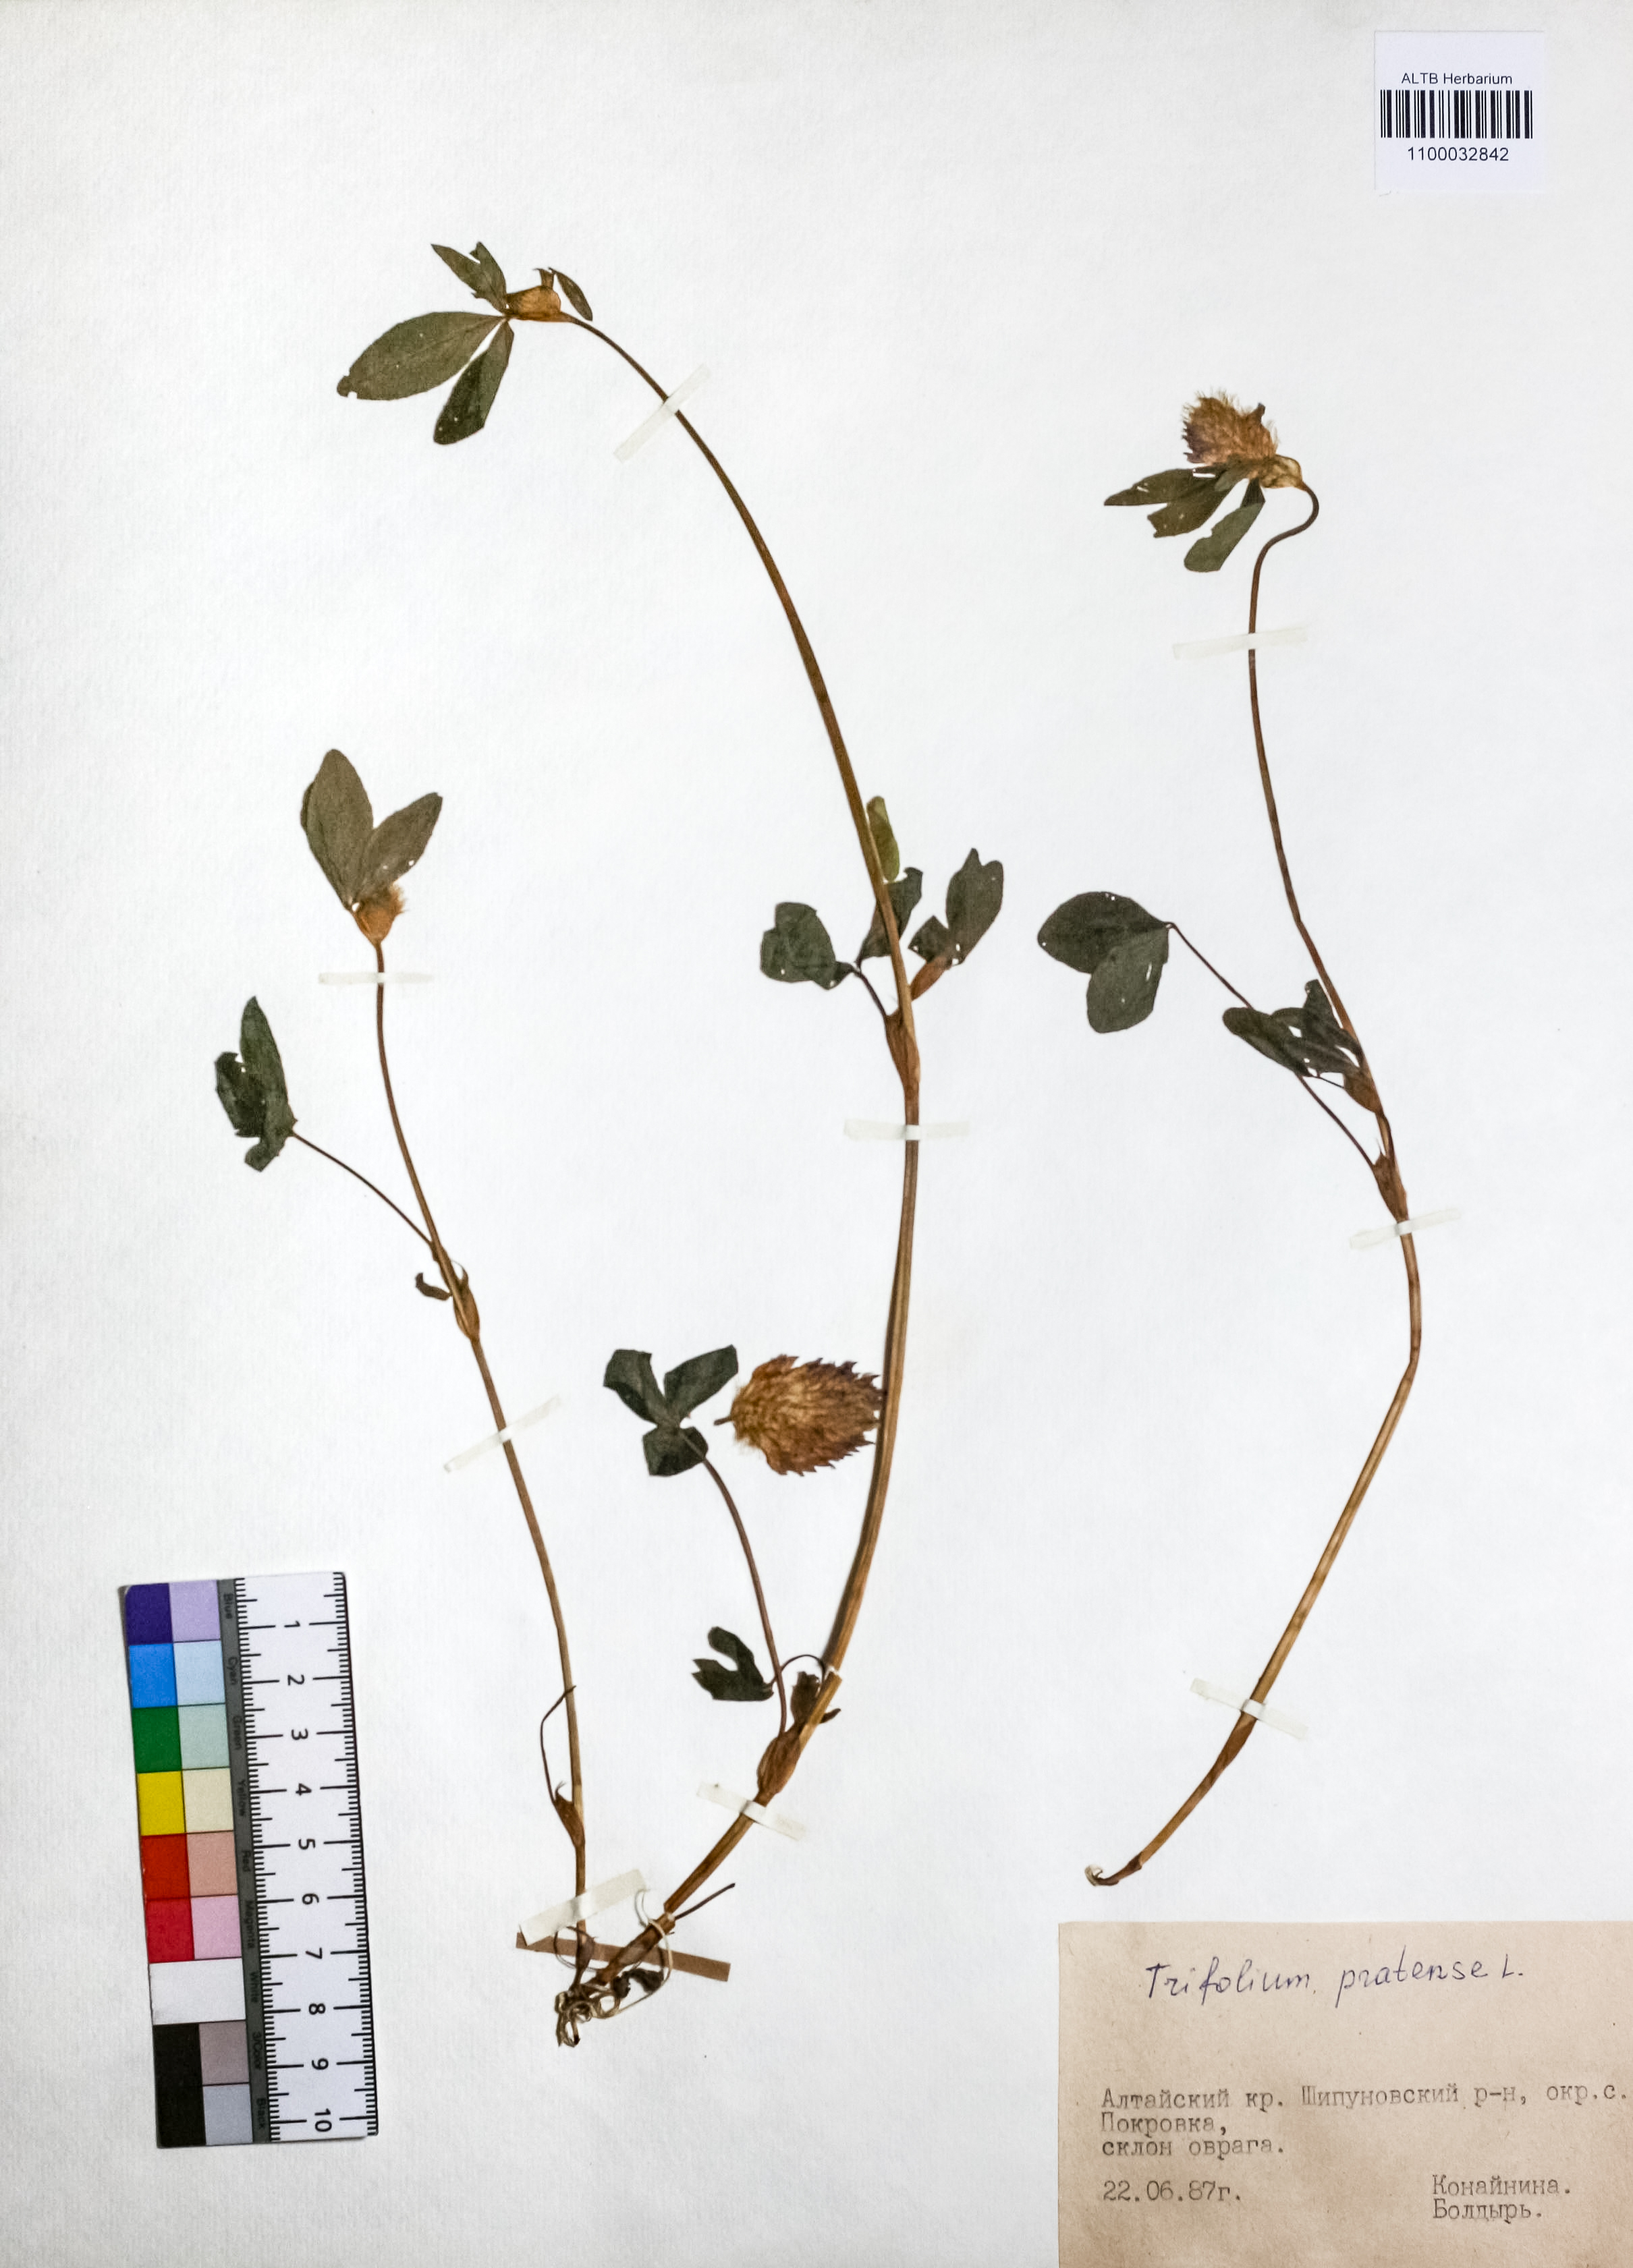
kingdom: Plantae
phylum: Tracheophyta
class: Magnoliopsida
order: Fabales
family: Fabaceae
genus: Trifolium
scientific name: Trifolium pratense
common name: Red clover
